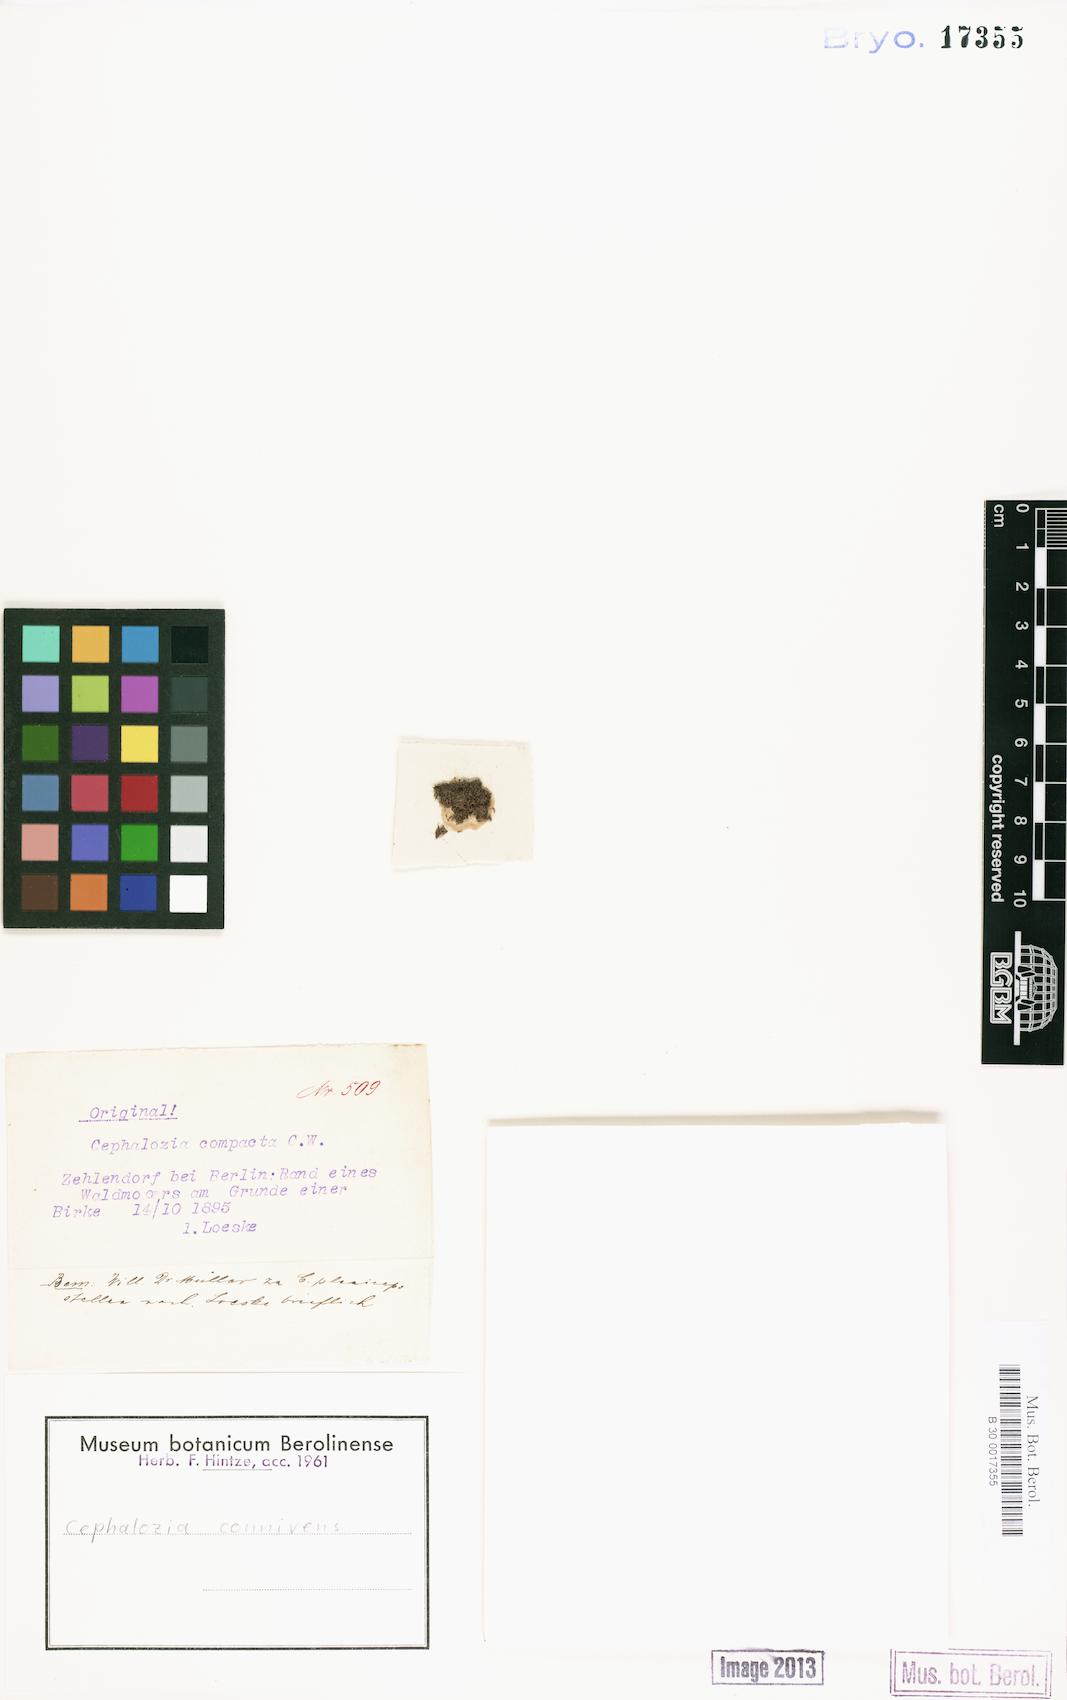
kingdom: Plantae
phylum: Marchantiophyta
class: Jungermanniopsida
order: Jungermanniales
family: Cephaloziaceae
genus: Fuscocephaloziopsis
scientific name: Fuscocephaloziopsis connivens
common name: Forcipated pincerwort
